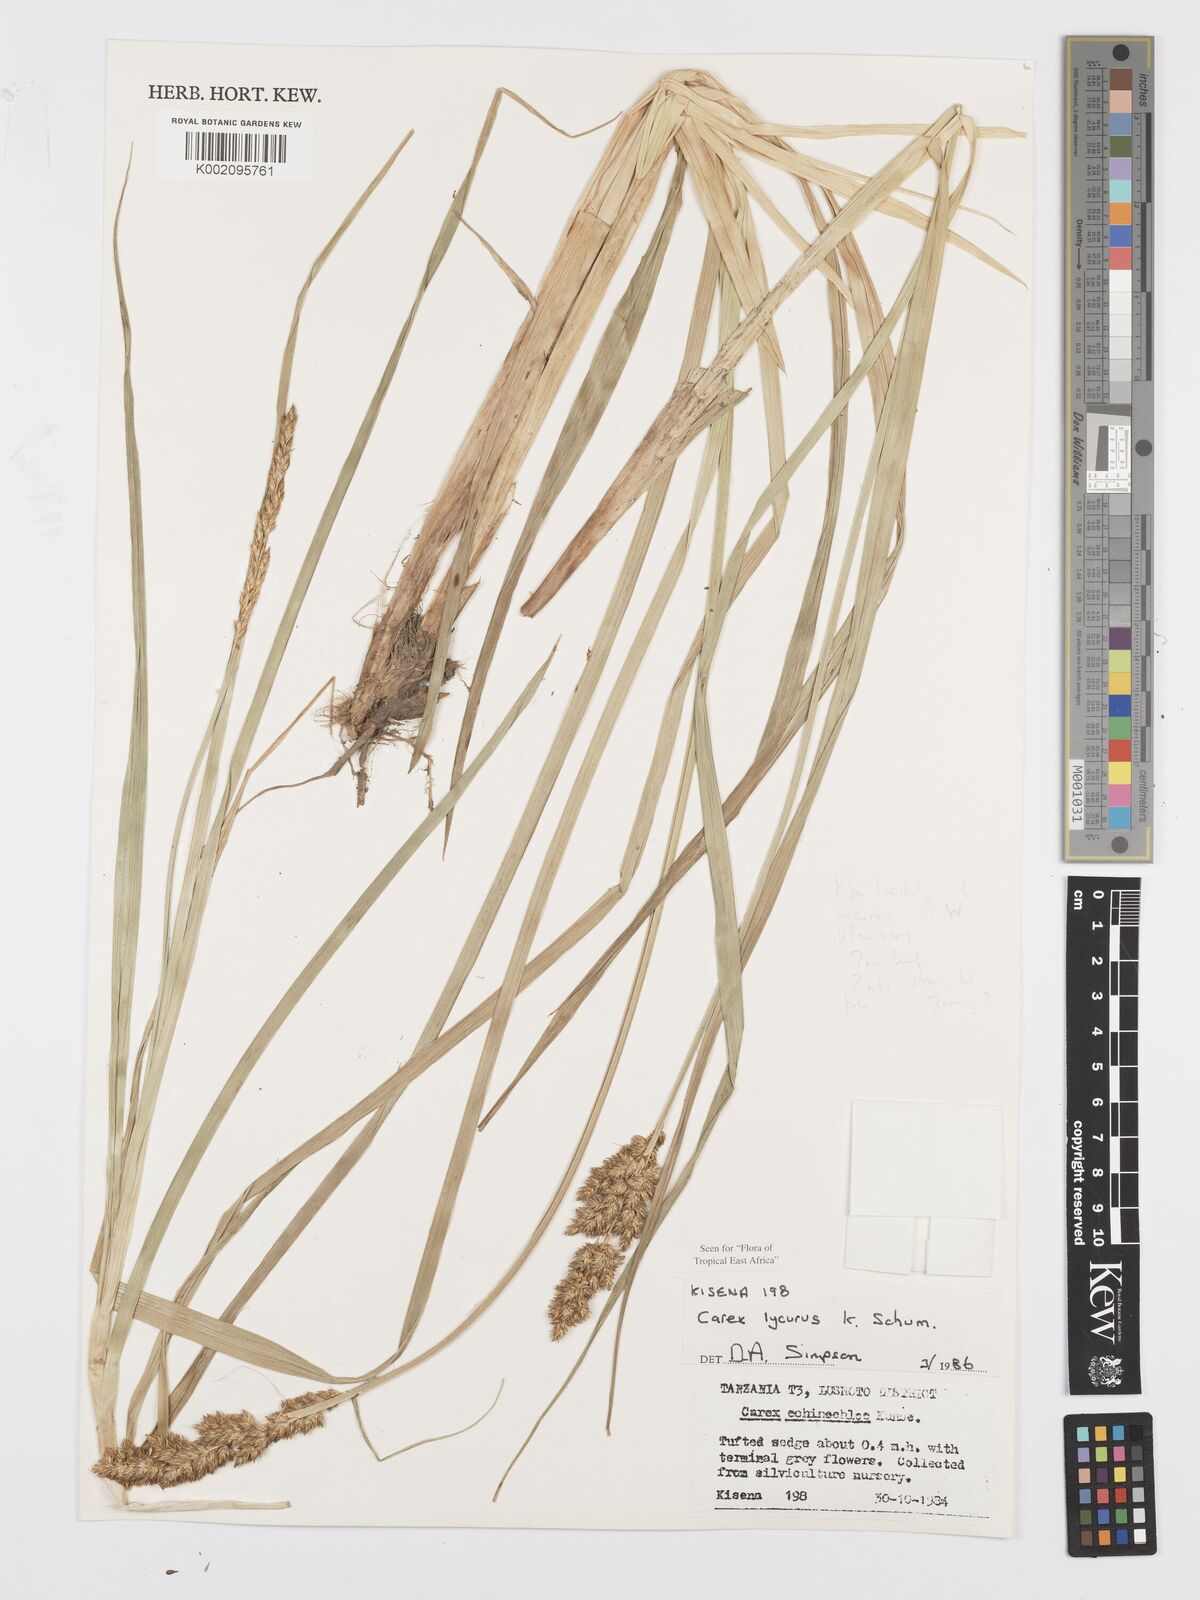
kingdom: Plantae
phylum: Tracheophyta
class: Liliopsida
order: Poales
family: Cyperaceae
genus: Carex
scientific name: Carex lycurus
